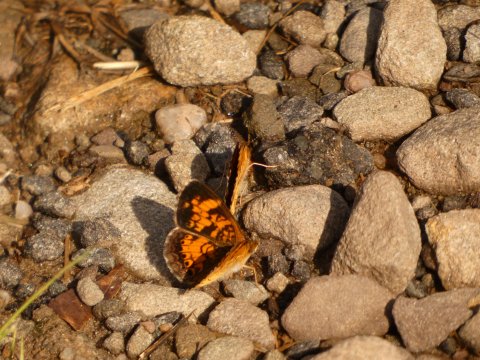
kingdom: Animalia
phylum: Arthropoda
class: Insecta
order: Lepidoptera
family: Nymphalidae
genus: Phyciodes
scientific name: Phyciodes tharos
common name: Pearl Crescent
